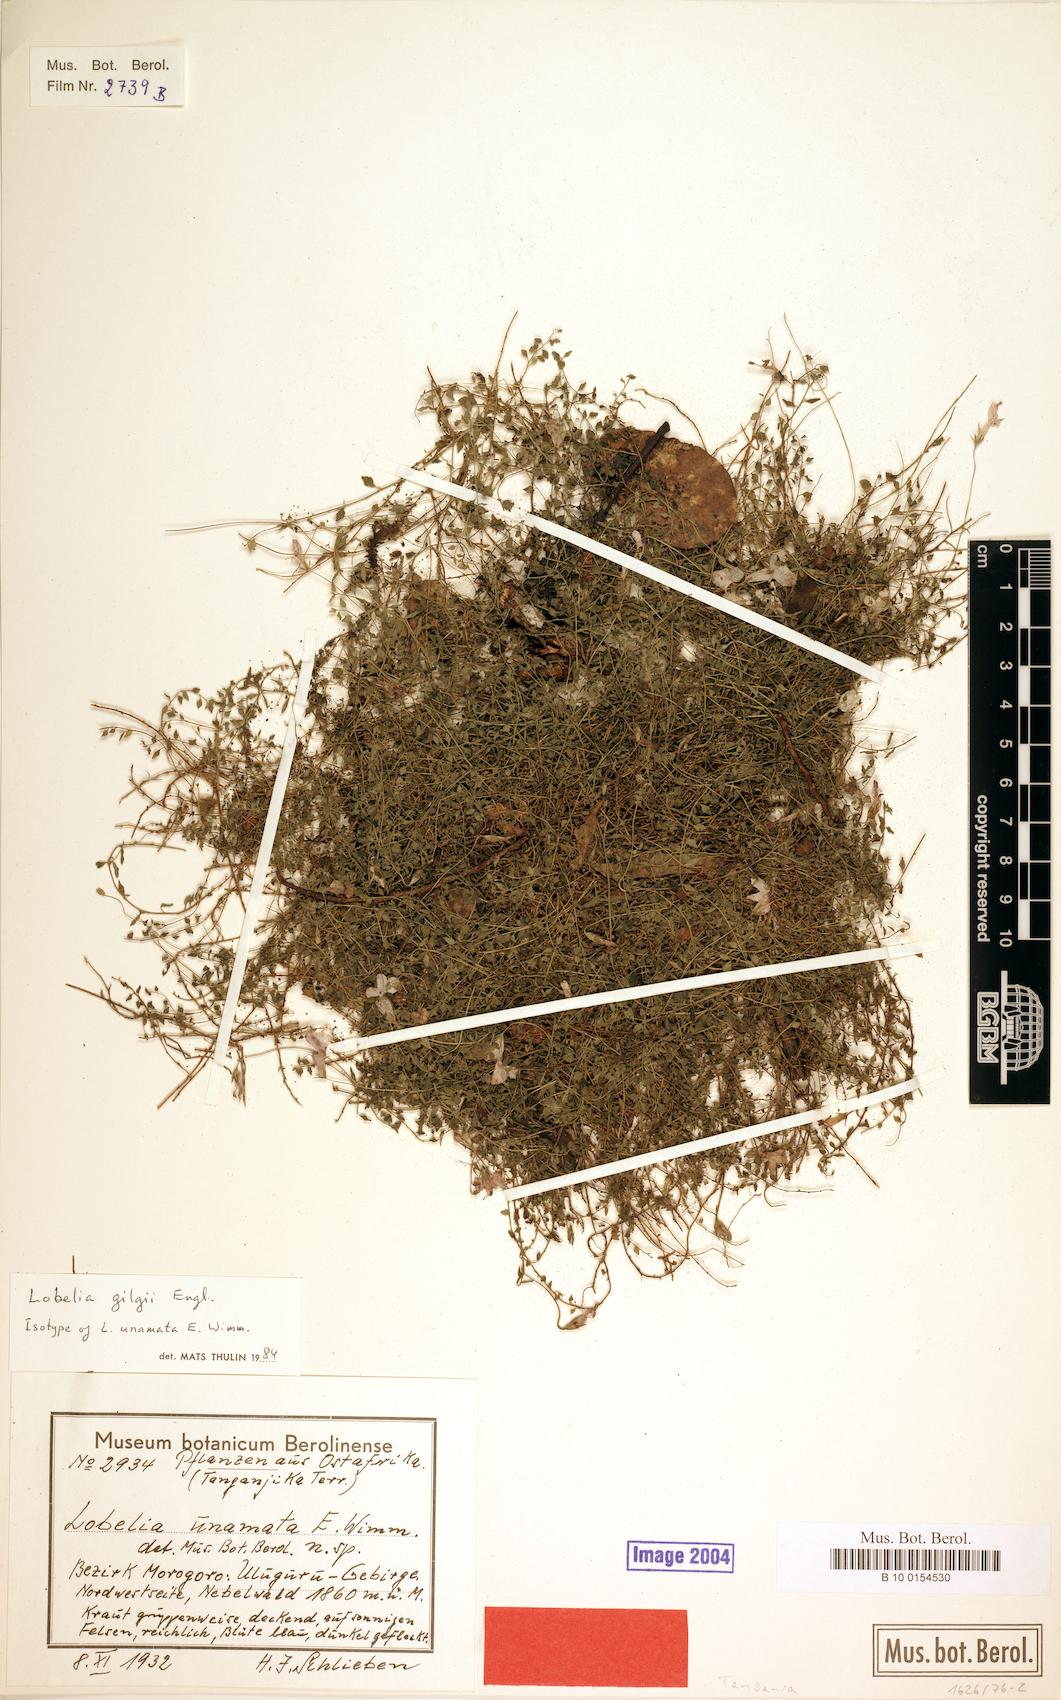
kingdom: Plantae
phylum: Tracheophyta
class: Magnoliopsida
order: Asterales
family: Campanulaceae
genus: Lobelia
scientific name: Lobelia gilgii
